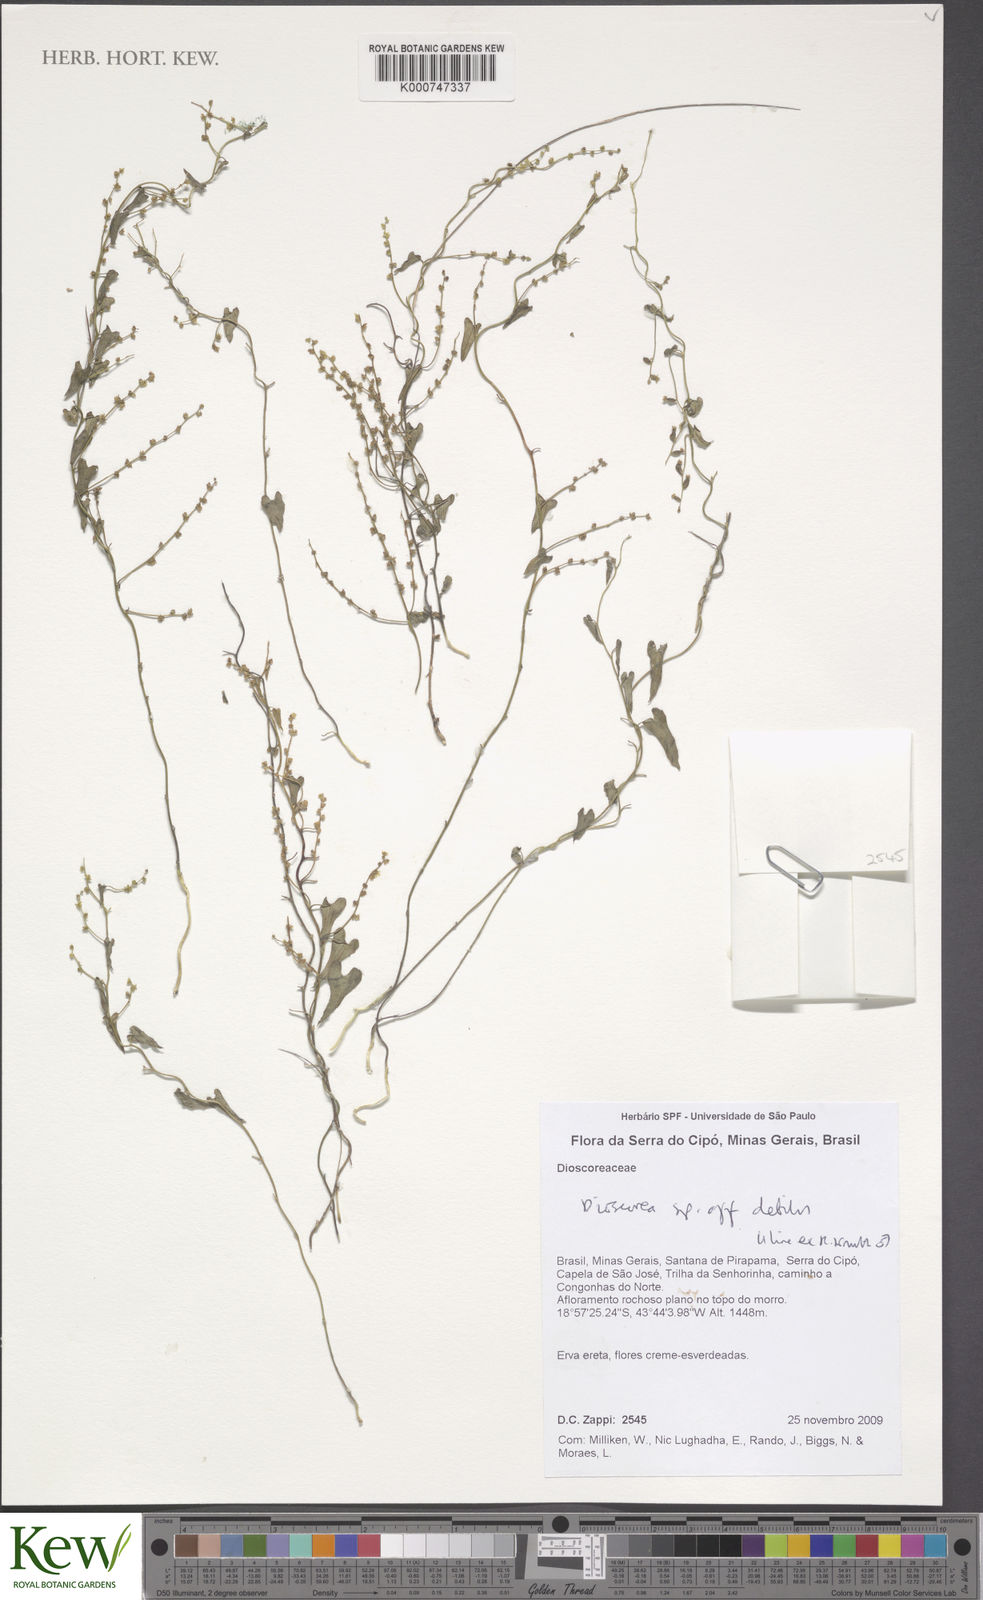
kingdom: Plantae
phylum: Tracheophyta
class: Liliopsida
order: Dioscoreales
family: Dioscoreaceae
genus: Dioscorea
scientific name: Dioscorea debilis
